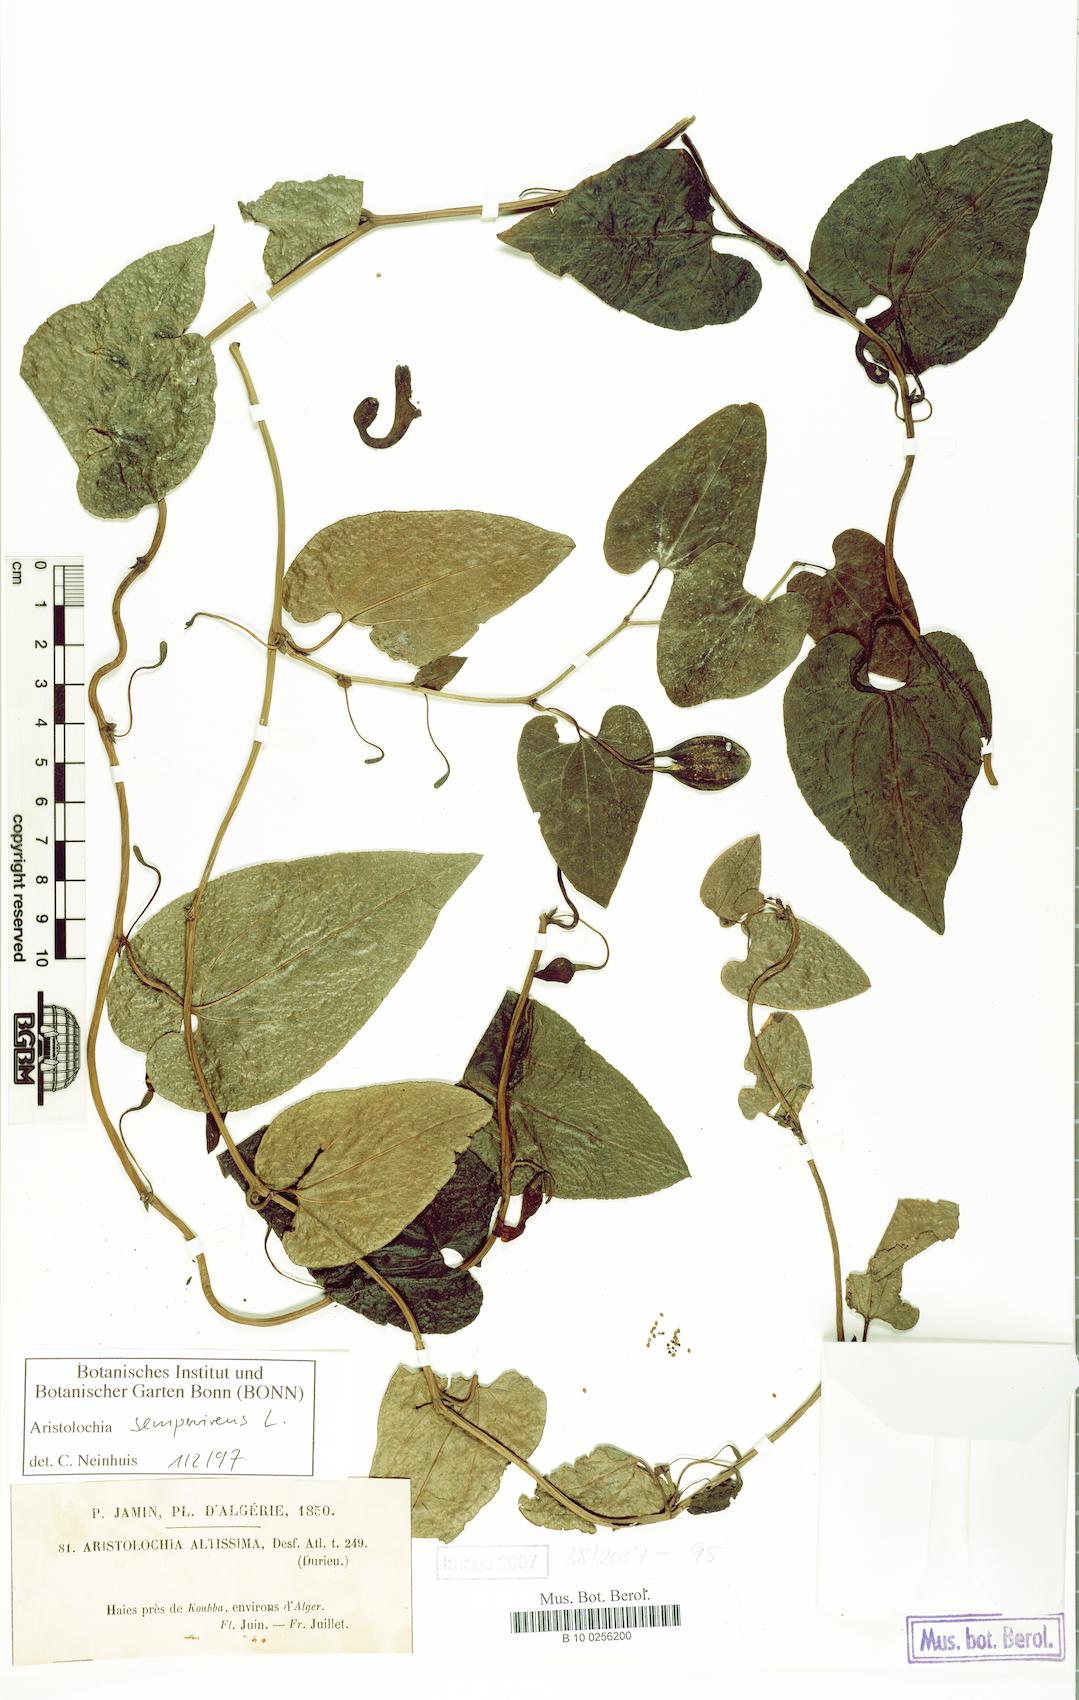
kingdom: Plantae
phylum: Tracheophyta
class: Magnoliopsida
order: Piperales
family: Aristolochiaceae
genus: Aristolochia
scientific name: Aristolochia sempervirens
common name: Long birthwort
